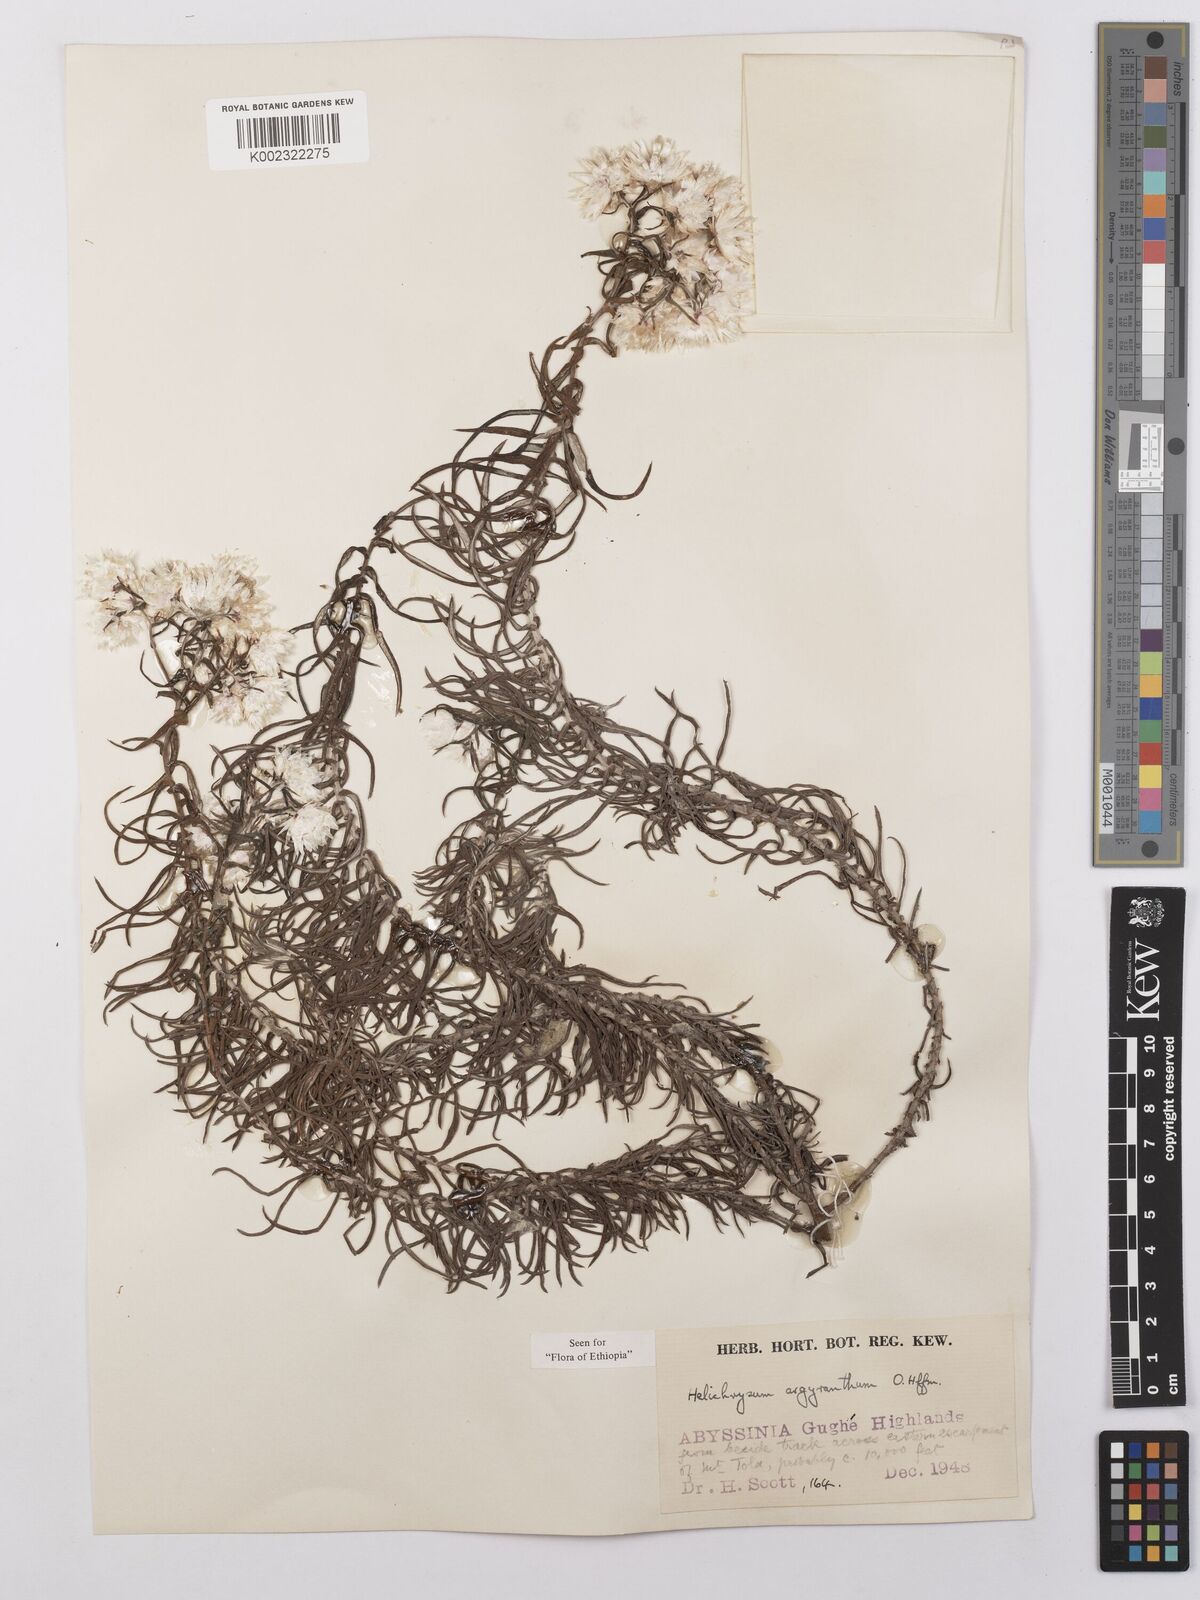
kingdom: Plantae
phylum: Tracheophyta
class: Magnoliopsida
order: Asterales
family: Asteraceae
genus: Helichrysum
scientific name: Helichrysum argyranthum
